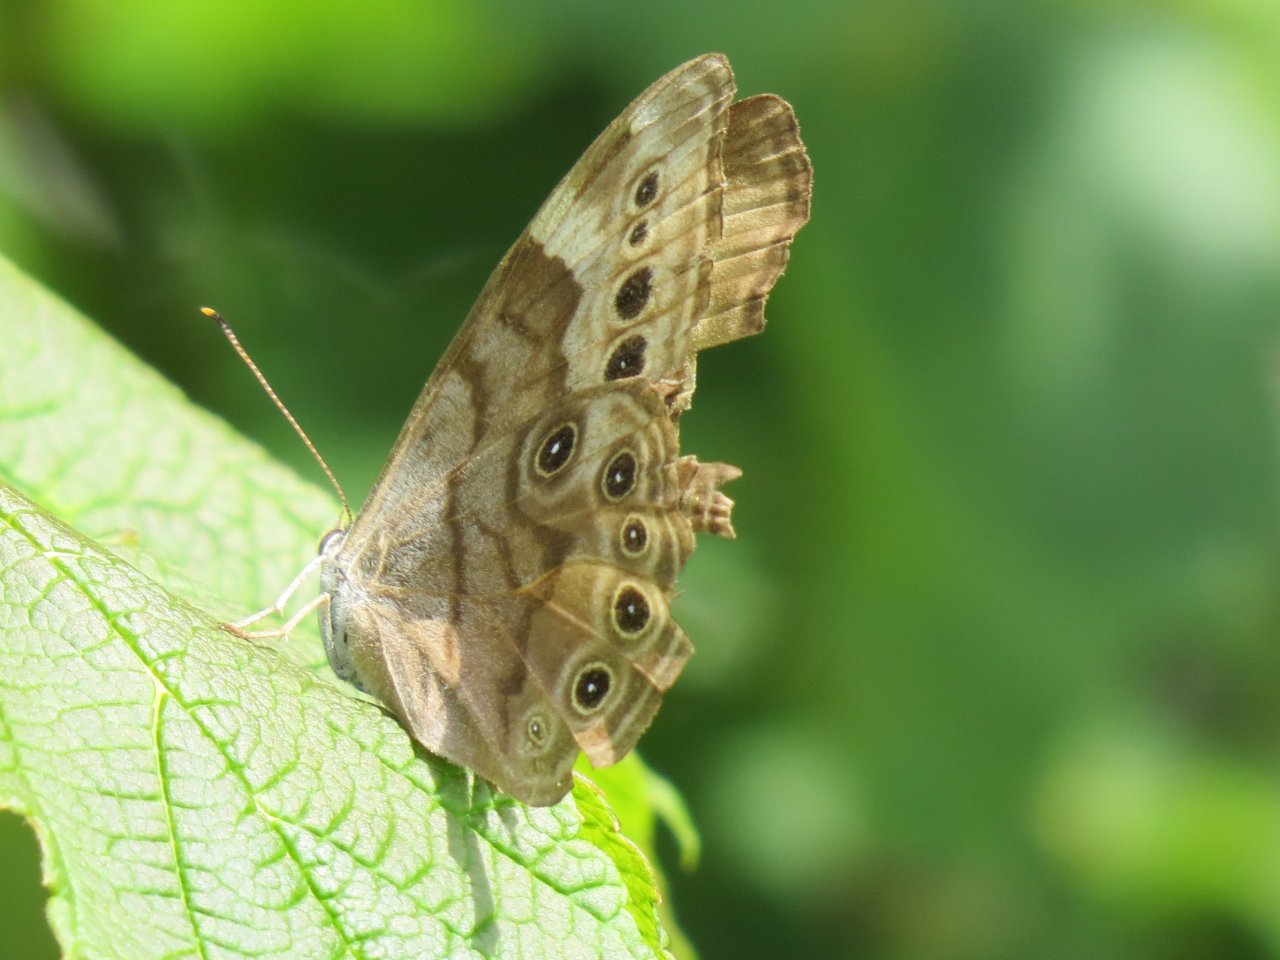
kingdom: Animalia
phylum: Arthropoda
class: Insecta
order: Lepidoptera
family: Nymphalidae
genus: Lethe
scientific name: Lethe anthedon
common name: Northern Pearly-Eye
